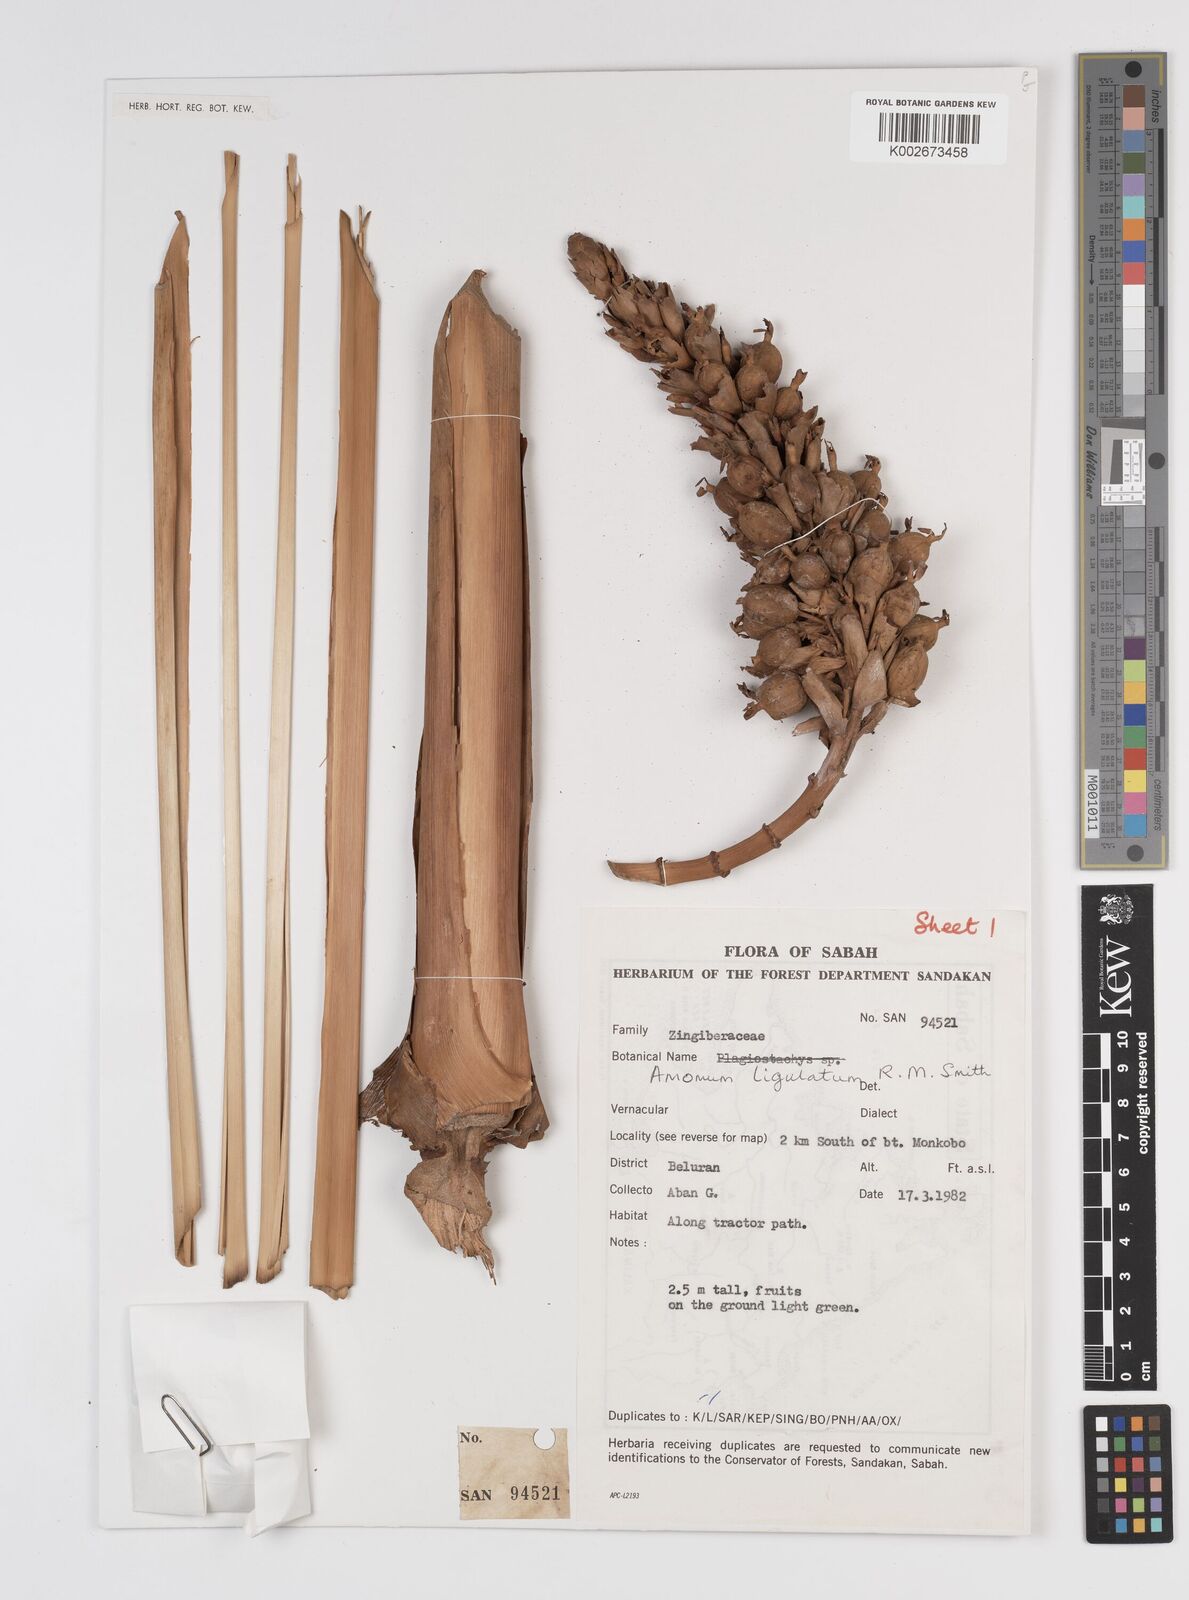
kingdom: Plantae
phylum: Tracheophyta
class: Liliopsida
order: Zingiberales
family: Zingiberaceae
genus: Sulettaria
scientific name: Sulettaria ligulata
